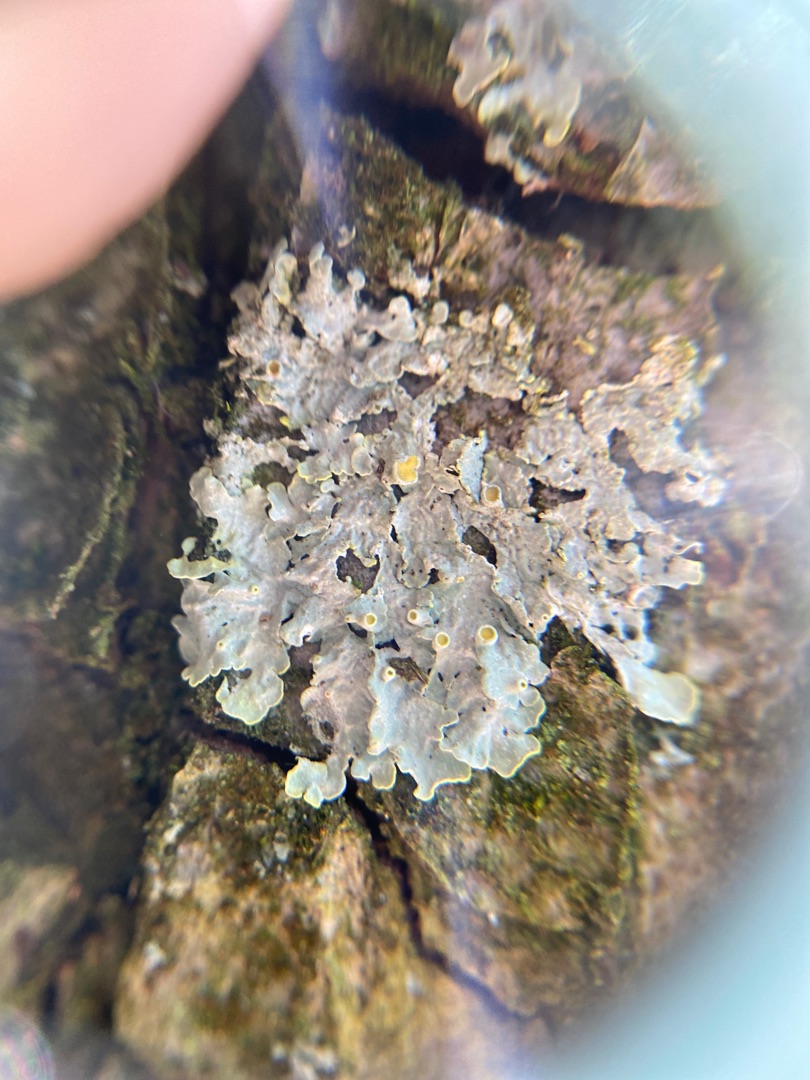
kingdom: Fungi
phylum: Ascomycota
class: Lecanoromycetes
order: Teloschistales
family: Teloschistaceae
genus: Xanthoria
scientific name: Xanthoria parietina
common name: Almindelig væggelav
